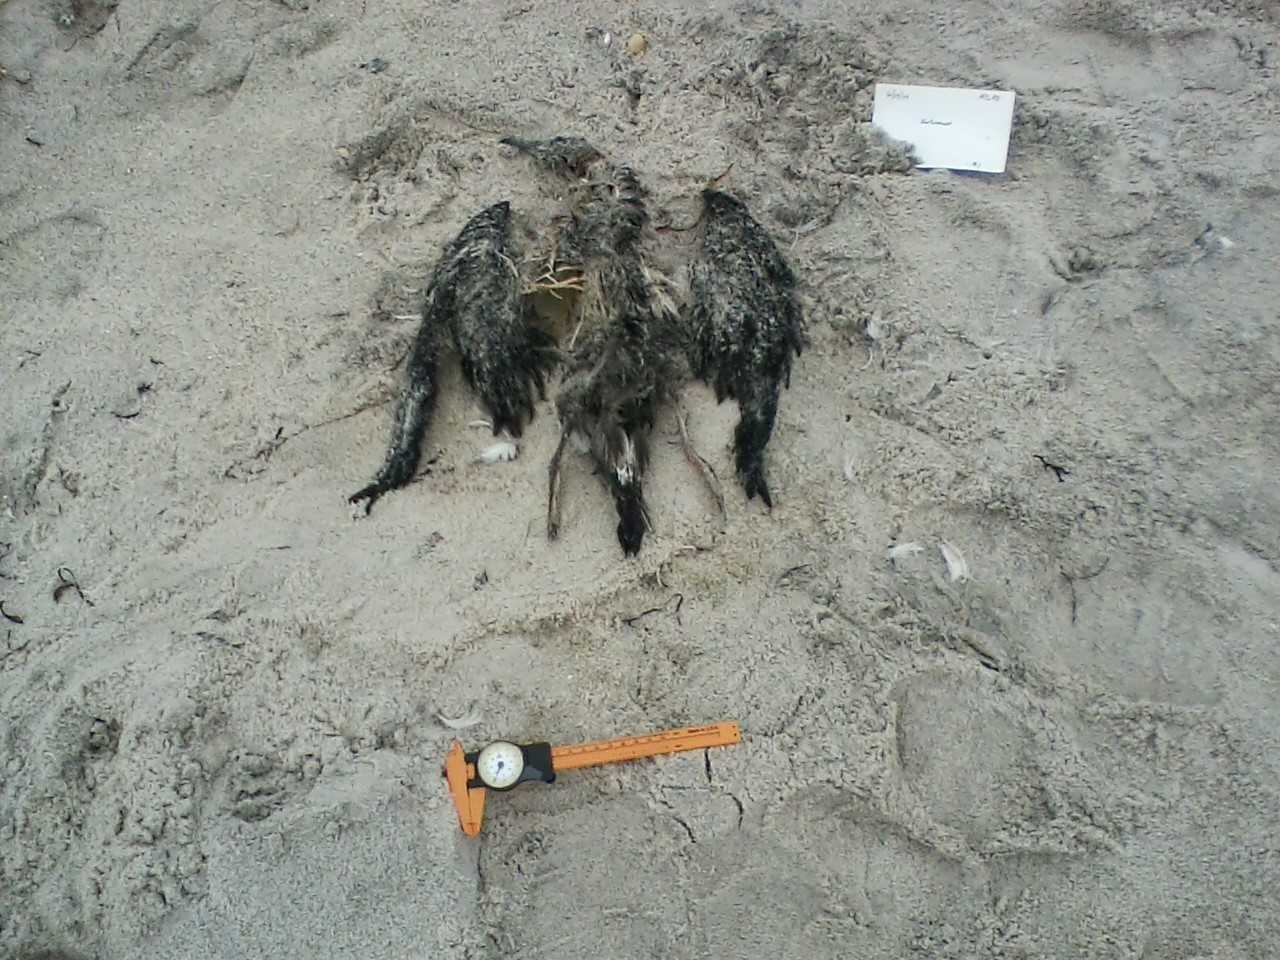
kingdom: Animalia
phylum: Chordata
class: Aves
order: Charadriiformes
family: Scolopacidae
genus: Calidris
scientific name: Calidris alba
